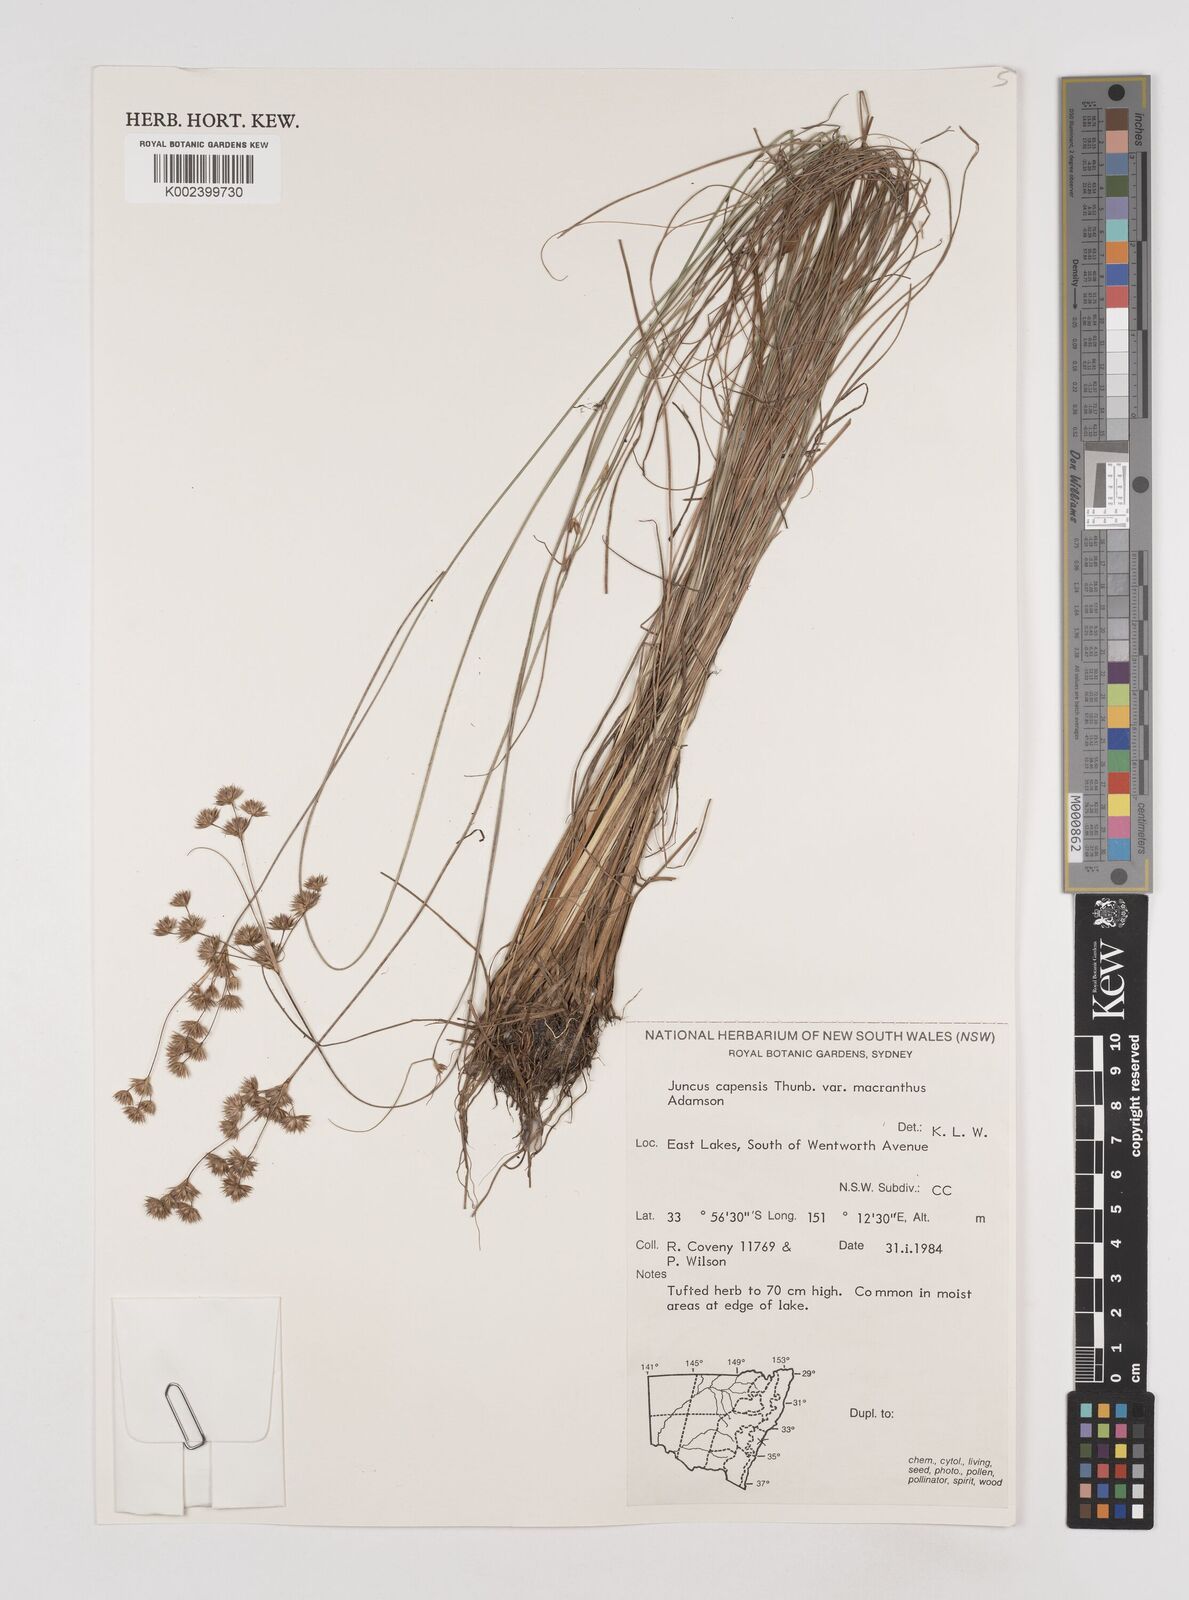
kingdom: Plantae
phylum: Tracheophyta
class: Liliopsida
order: Poales
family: Juncaceae
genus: Juncus
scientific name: Juncus capensis
